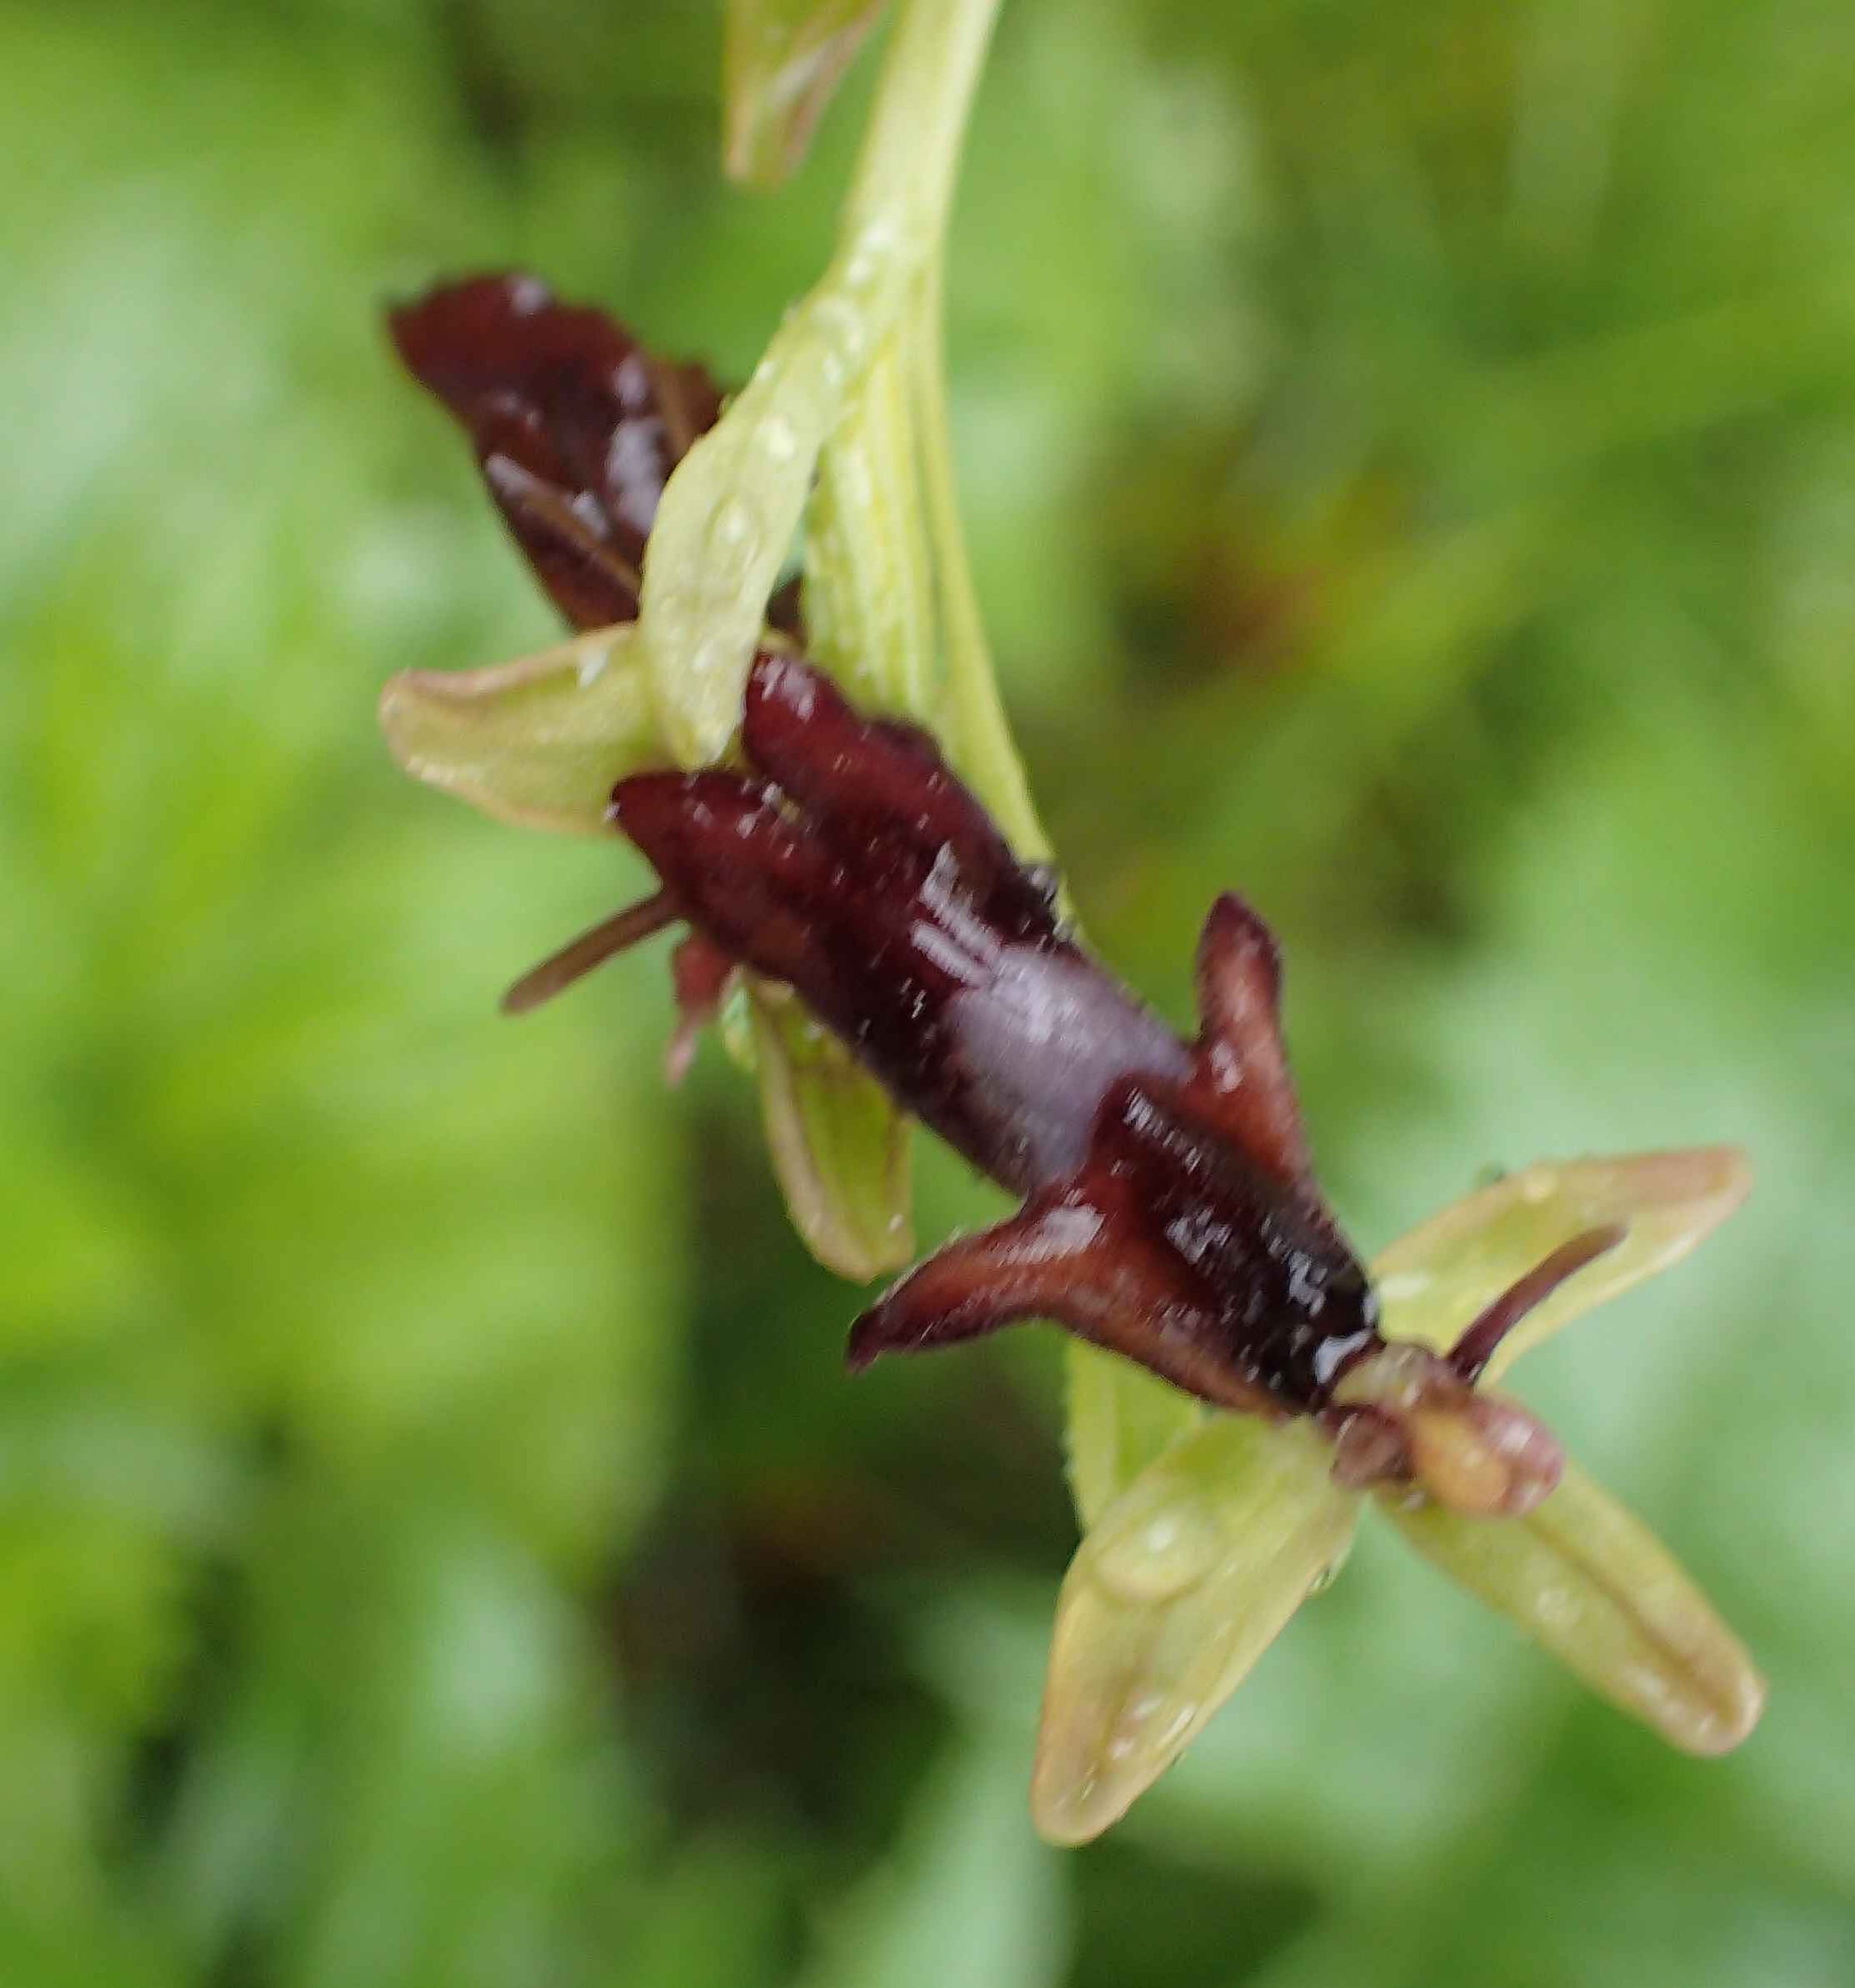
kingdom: Plantae
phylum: Tracheophyta
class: Liliopsida
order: Asparagales
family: Orchidaceae
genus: Ophrys
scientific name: Ophrys insectifera
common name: Flueblomst
